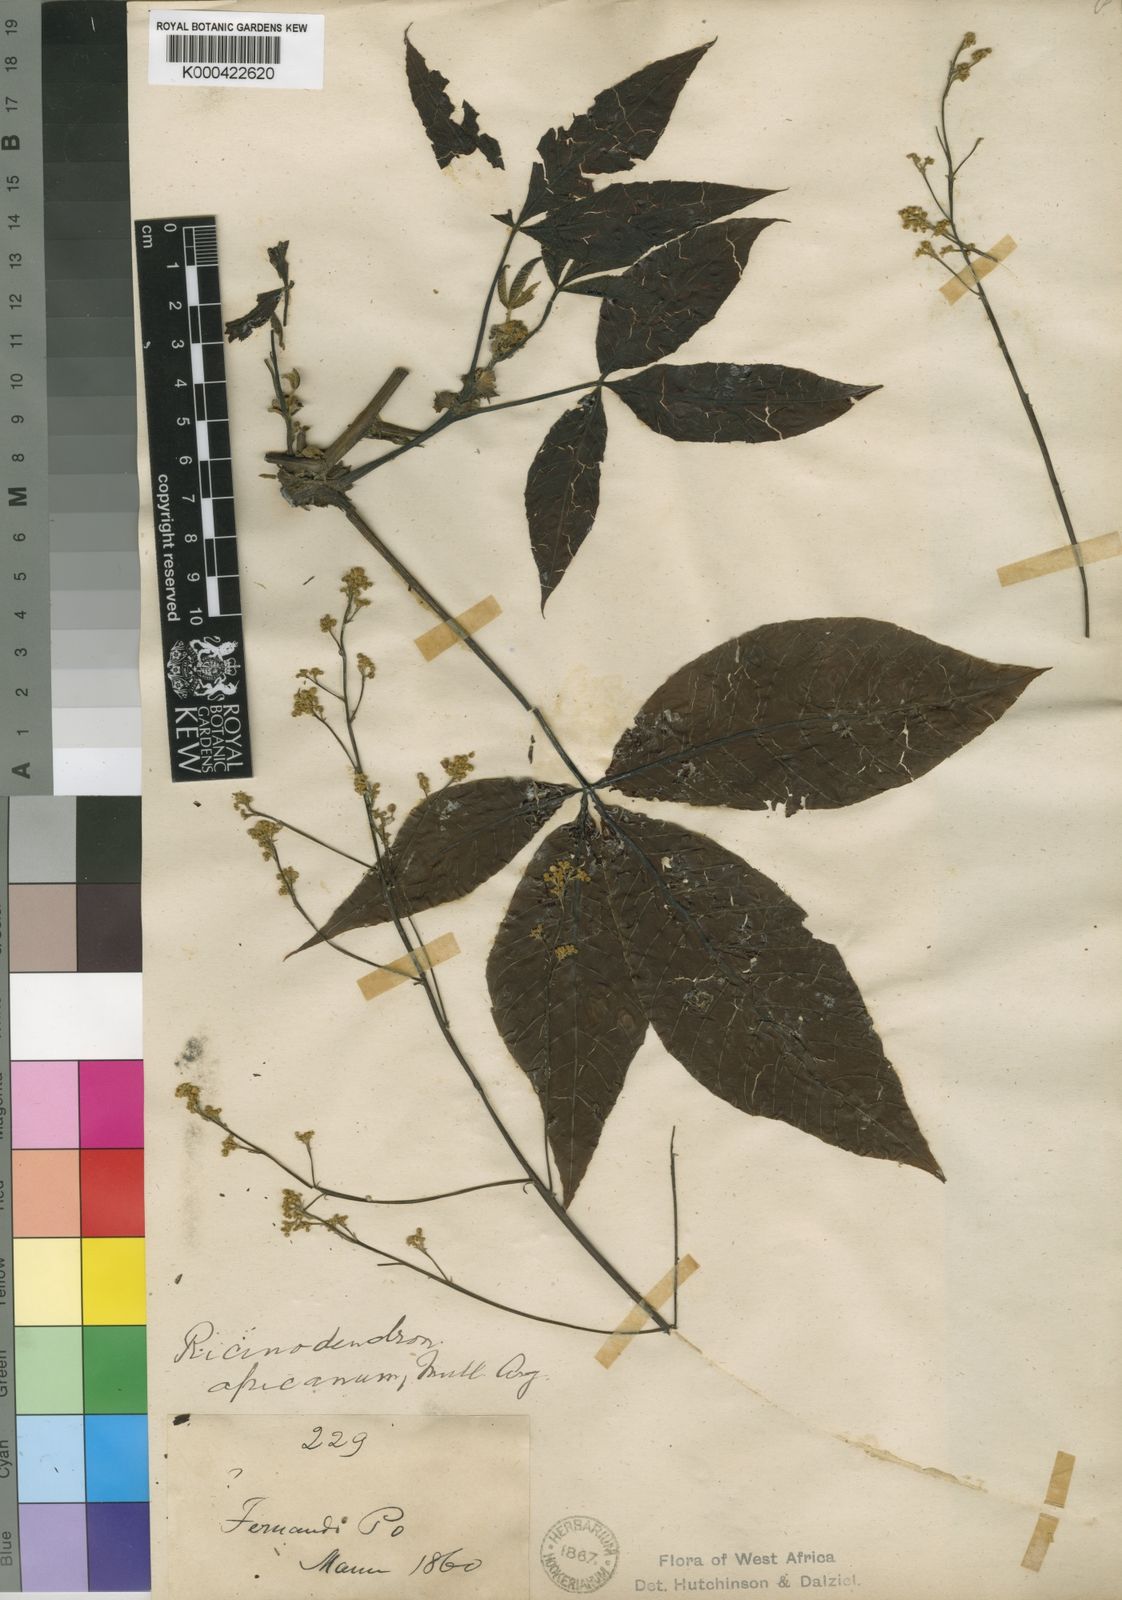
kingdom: Plantae
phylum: Tracheophyta
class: Magnoliopsida
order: Malpighiales
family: Euphorbiaceae
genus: Ricinodendron
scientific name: Ricinodendron heudelotii
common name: African nut-tree
